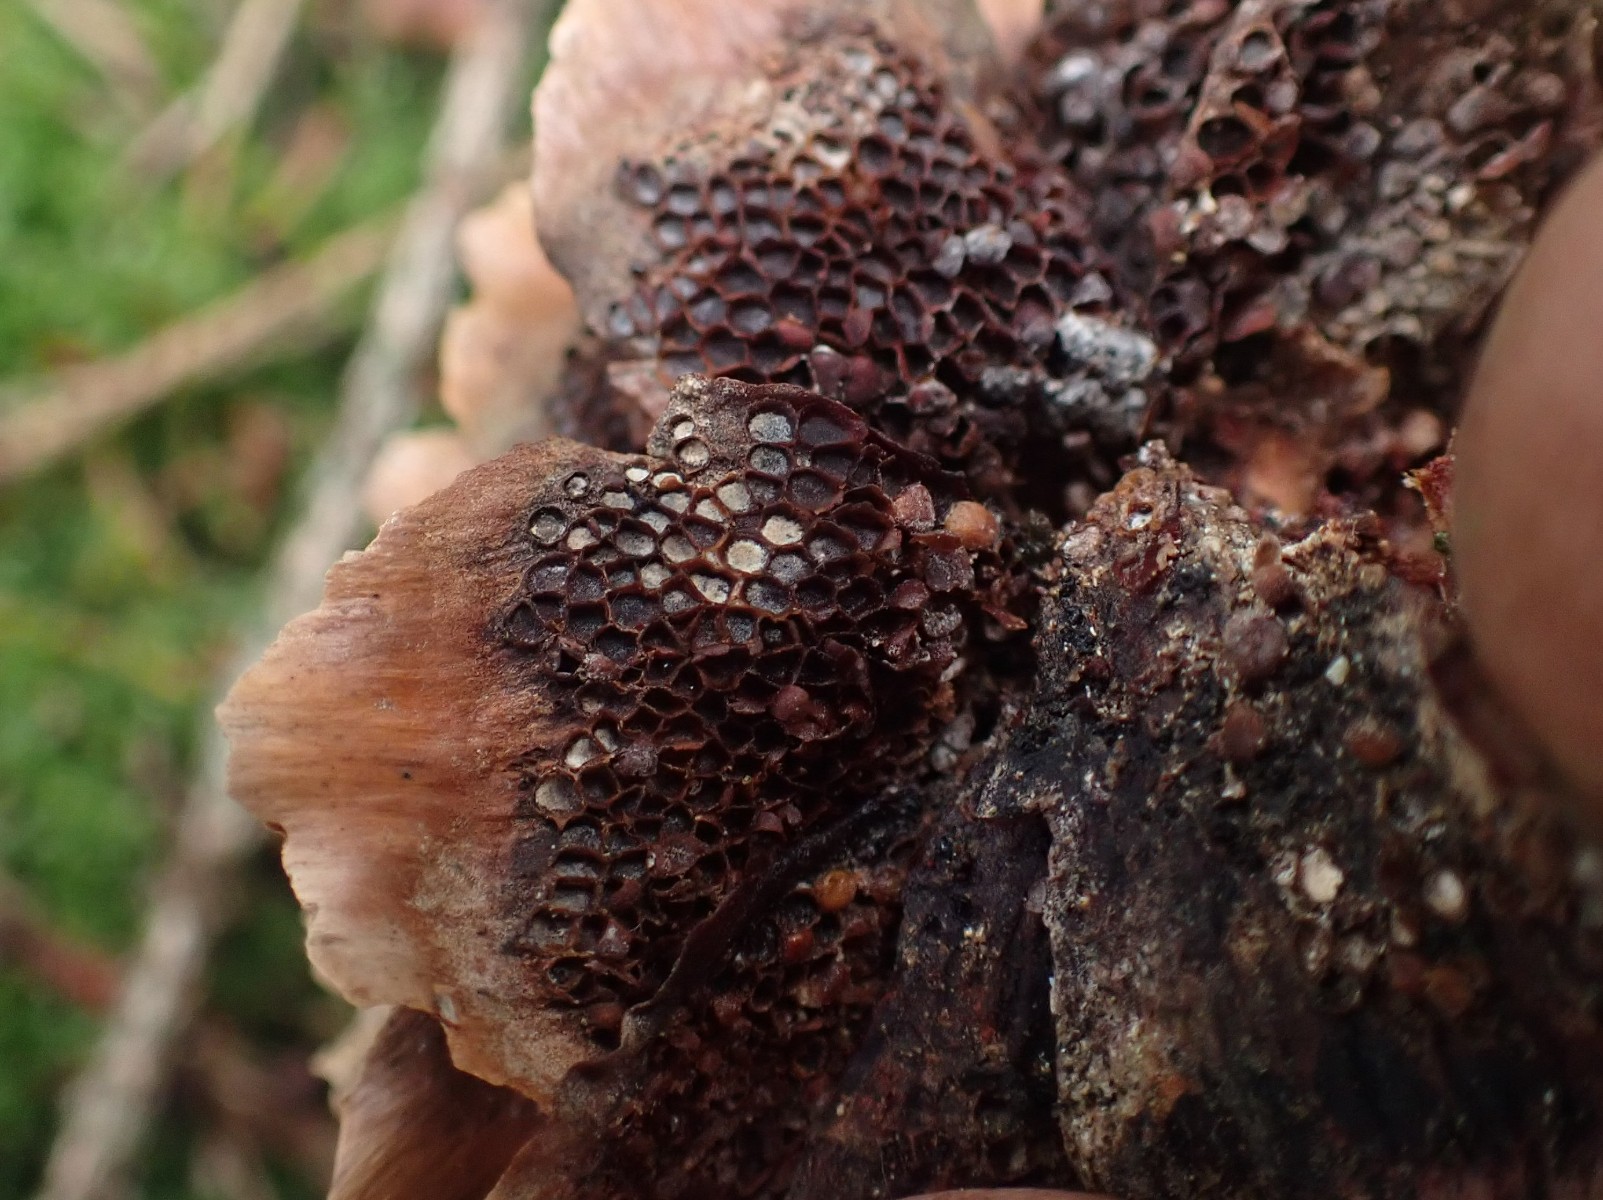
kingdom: Fungi
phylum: Basidiomycota
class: Pucciniomycetes
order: Pucciniales
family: Pucciniastraceae
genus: Thekopsora
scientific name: Thekopsora areolata
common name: grankogle-nålerust
